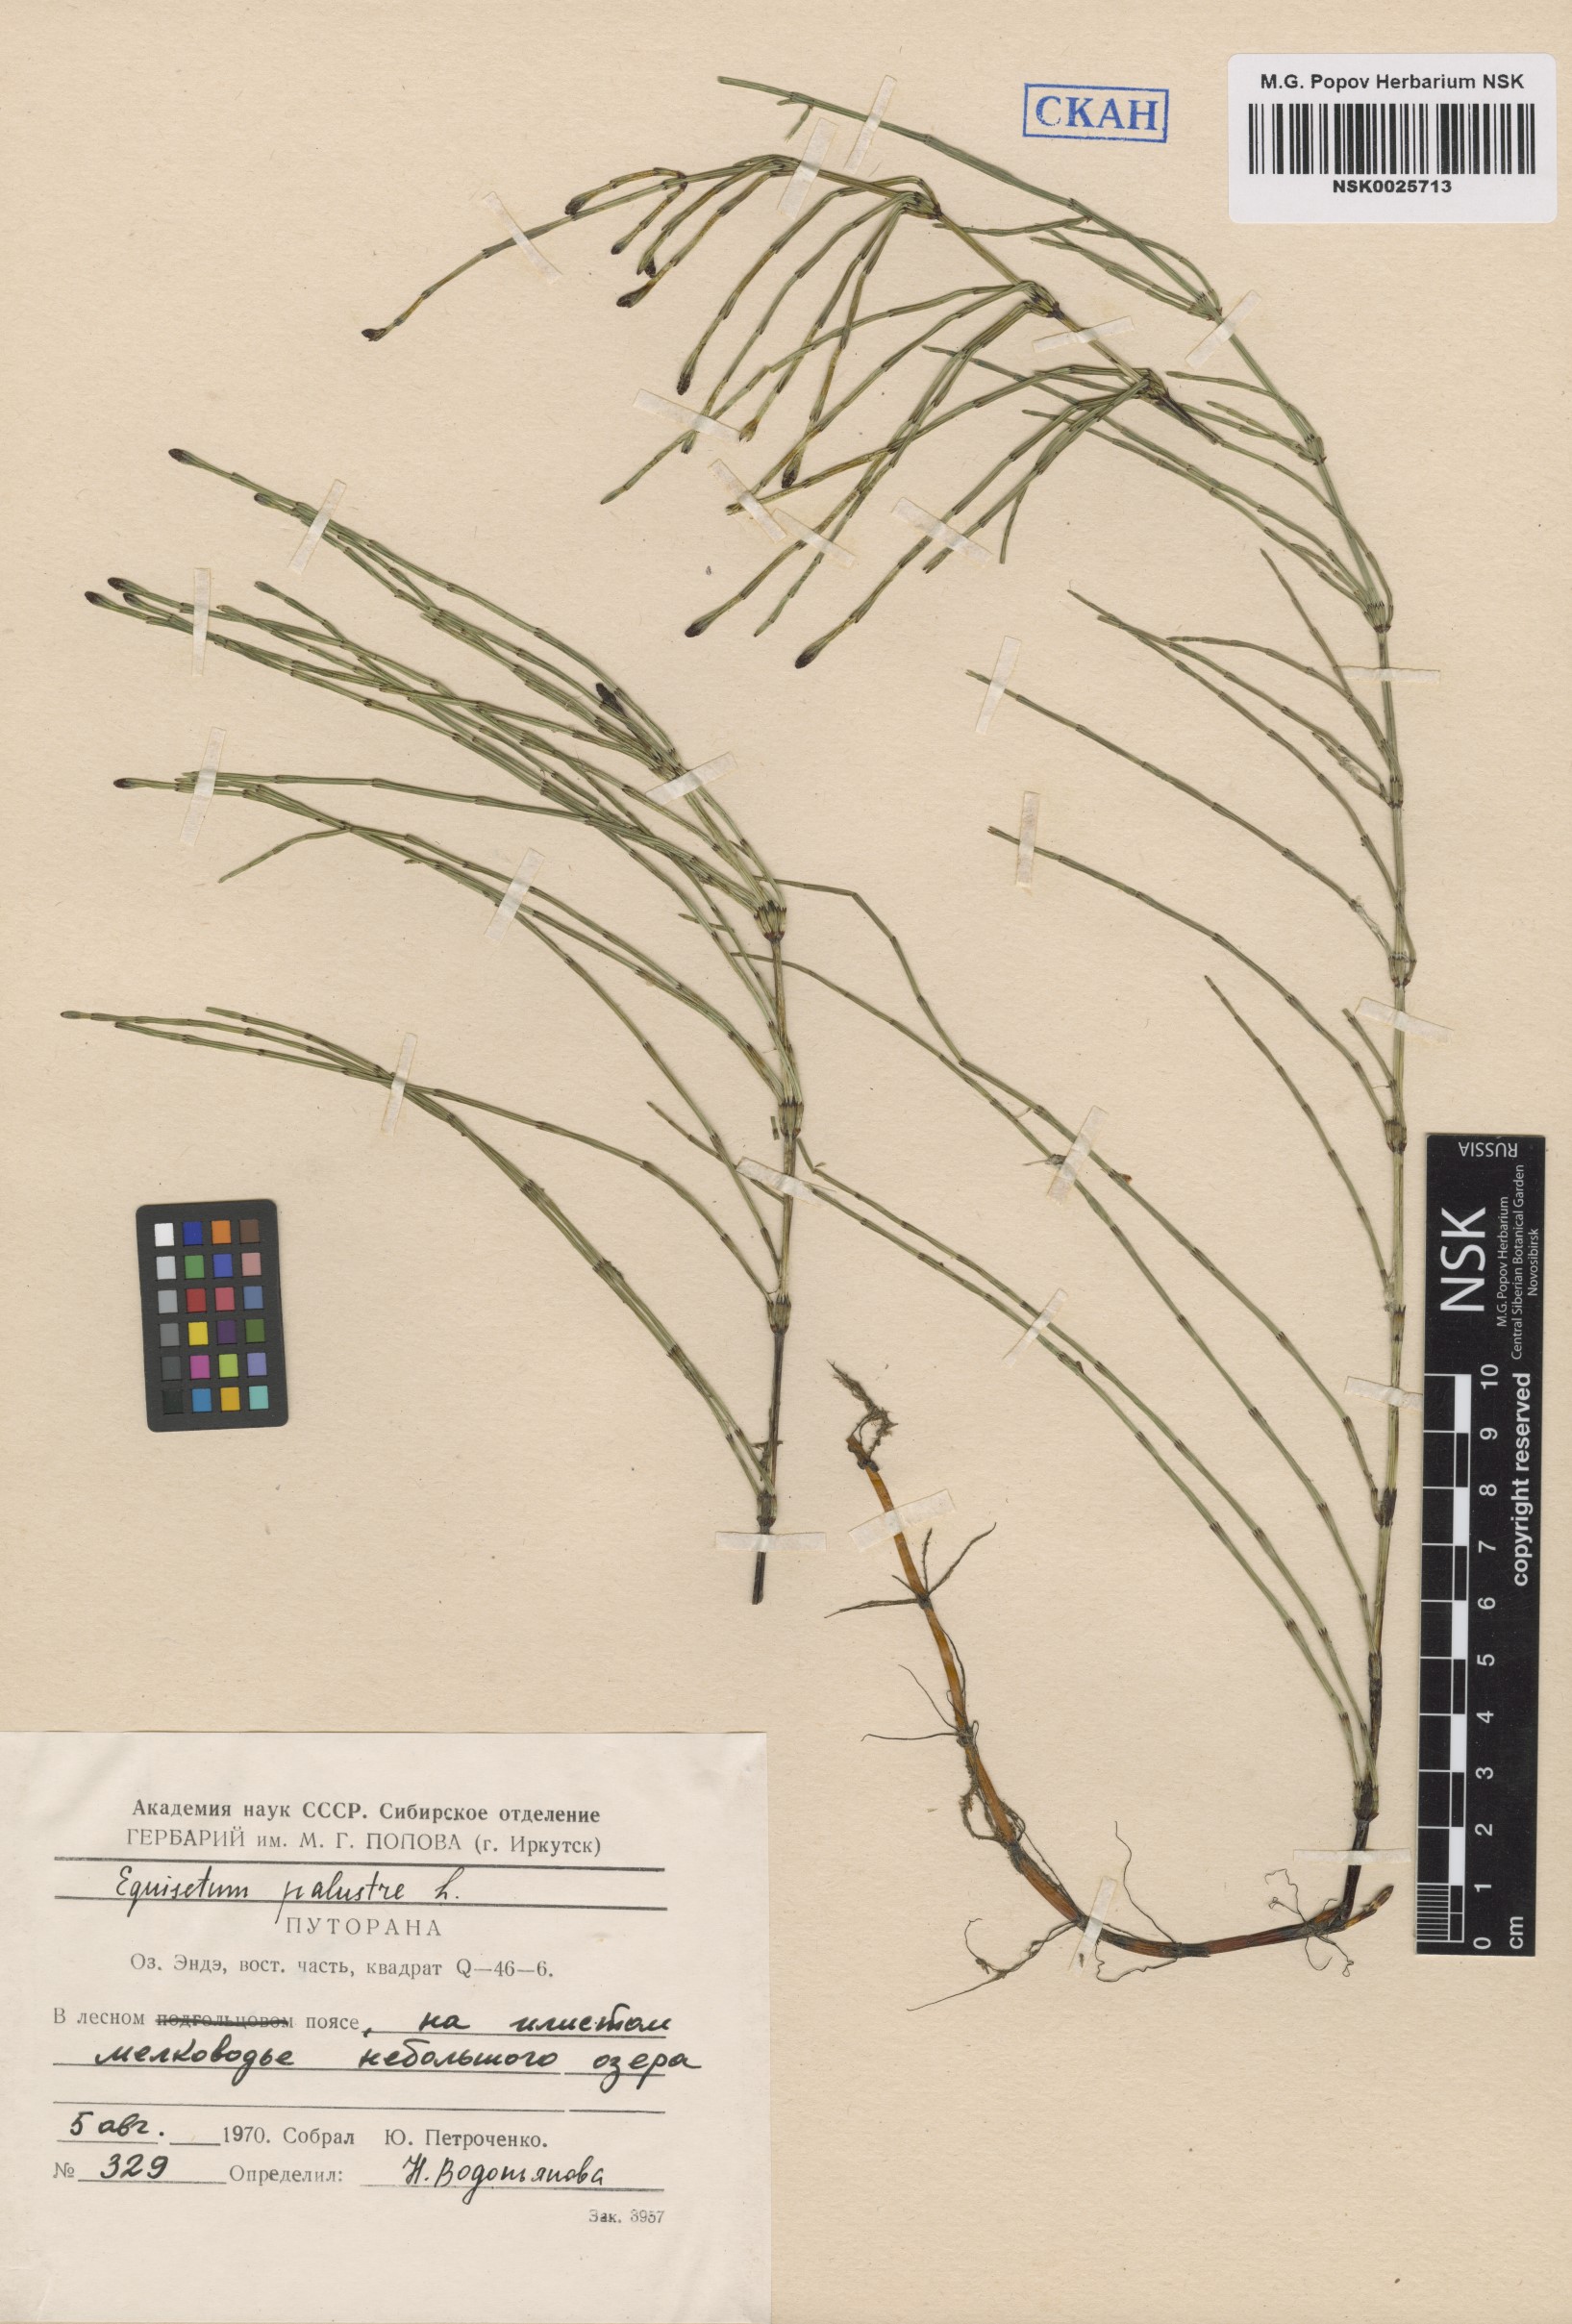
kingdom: Plantae
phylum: Tracheophyta
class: Polypodiopsida
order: Equisetales
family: Equisetaceae
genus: Equisetum
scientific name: Equisetum palustre
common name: Marsh horsetail
